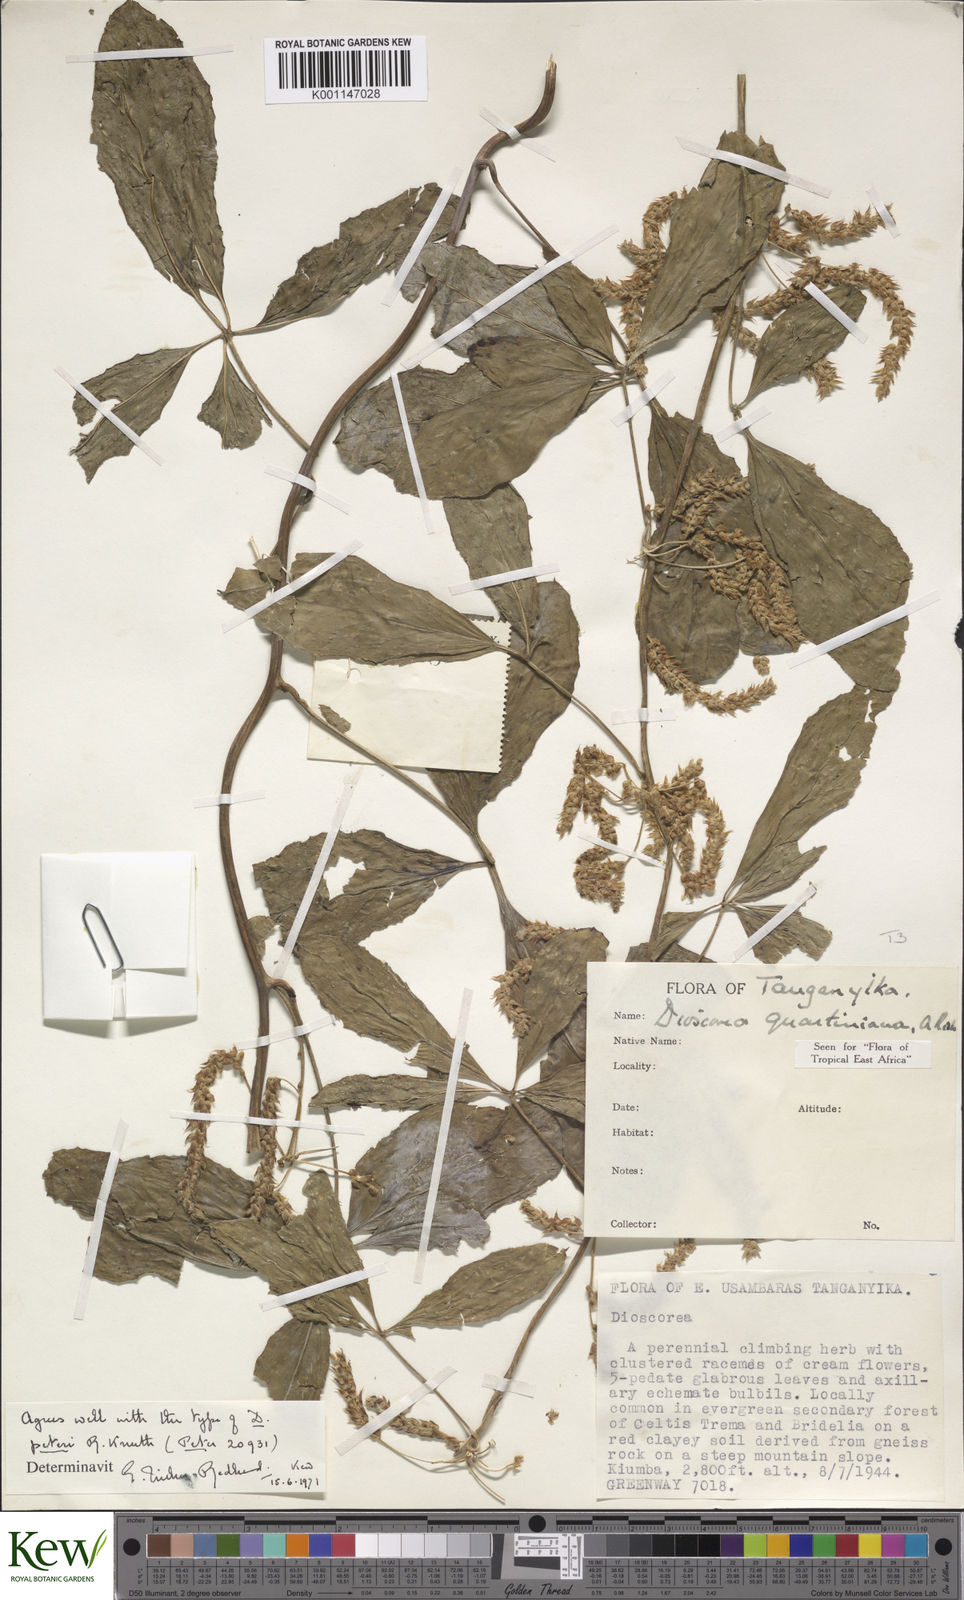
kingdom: Plantae
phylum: Tracheophyta
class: Liliopsida
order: Dioscoreales
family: Dioscoreaceae
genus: Dioscorea
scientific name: Dioscorea quartiniana
